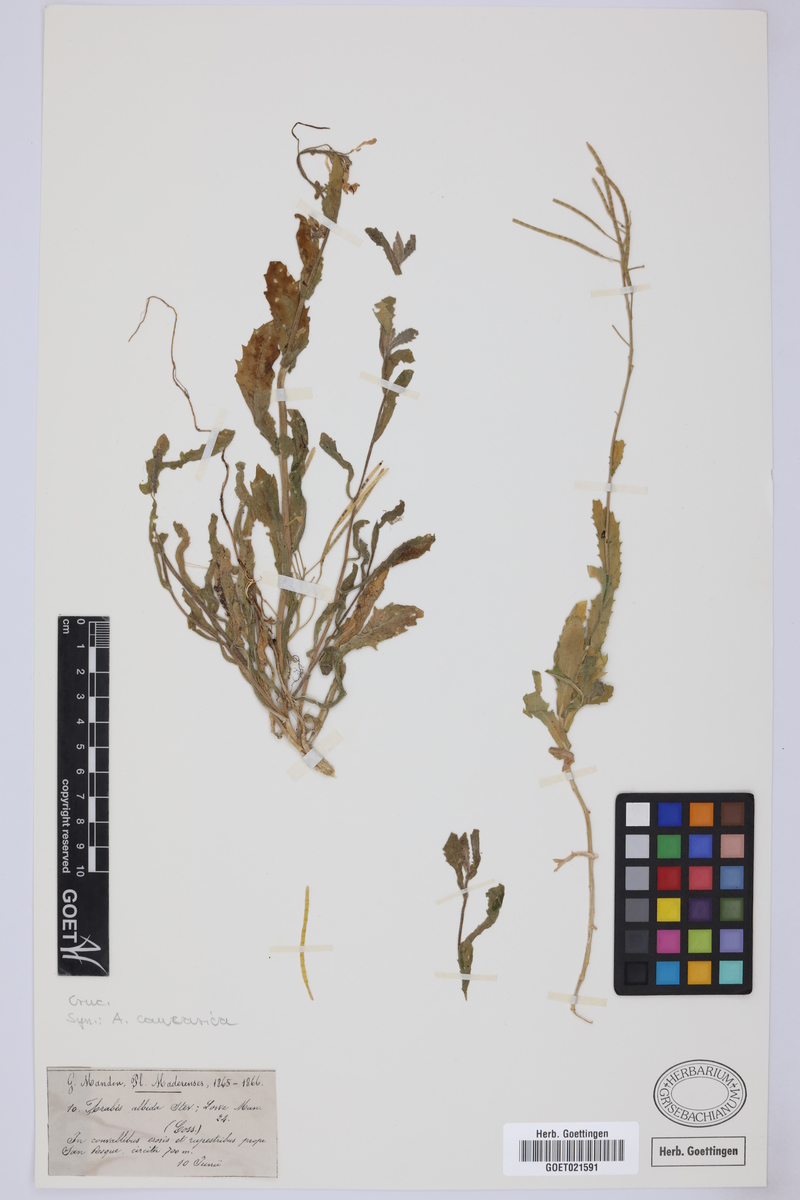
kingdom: Plantae
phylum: Tracheophyta
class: Magnoliopsida
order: Brassicales
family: Brassicaceae
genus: Arabis
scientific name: Arabis caucasica
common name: Gray rockcress
